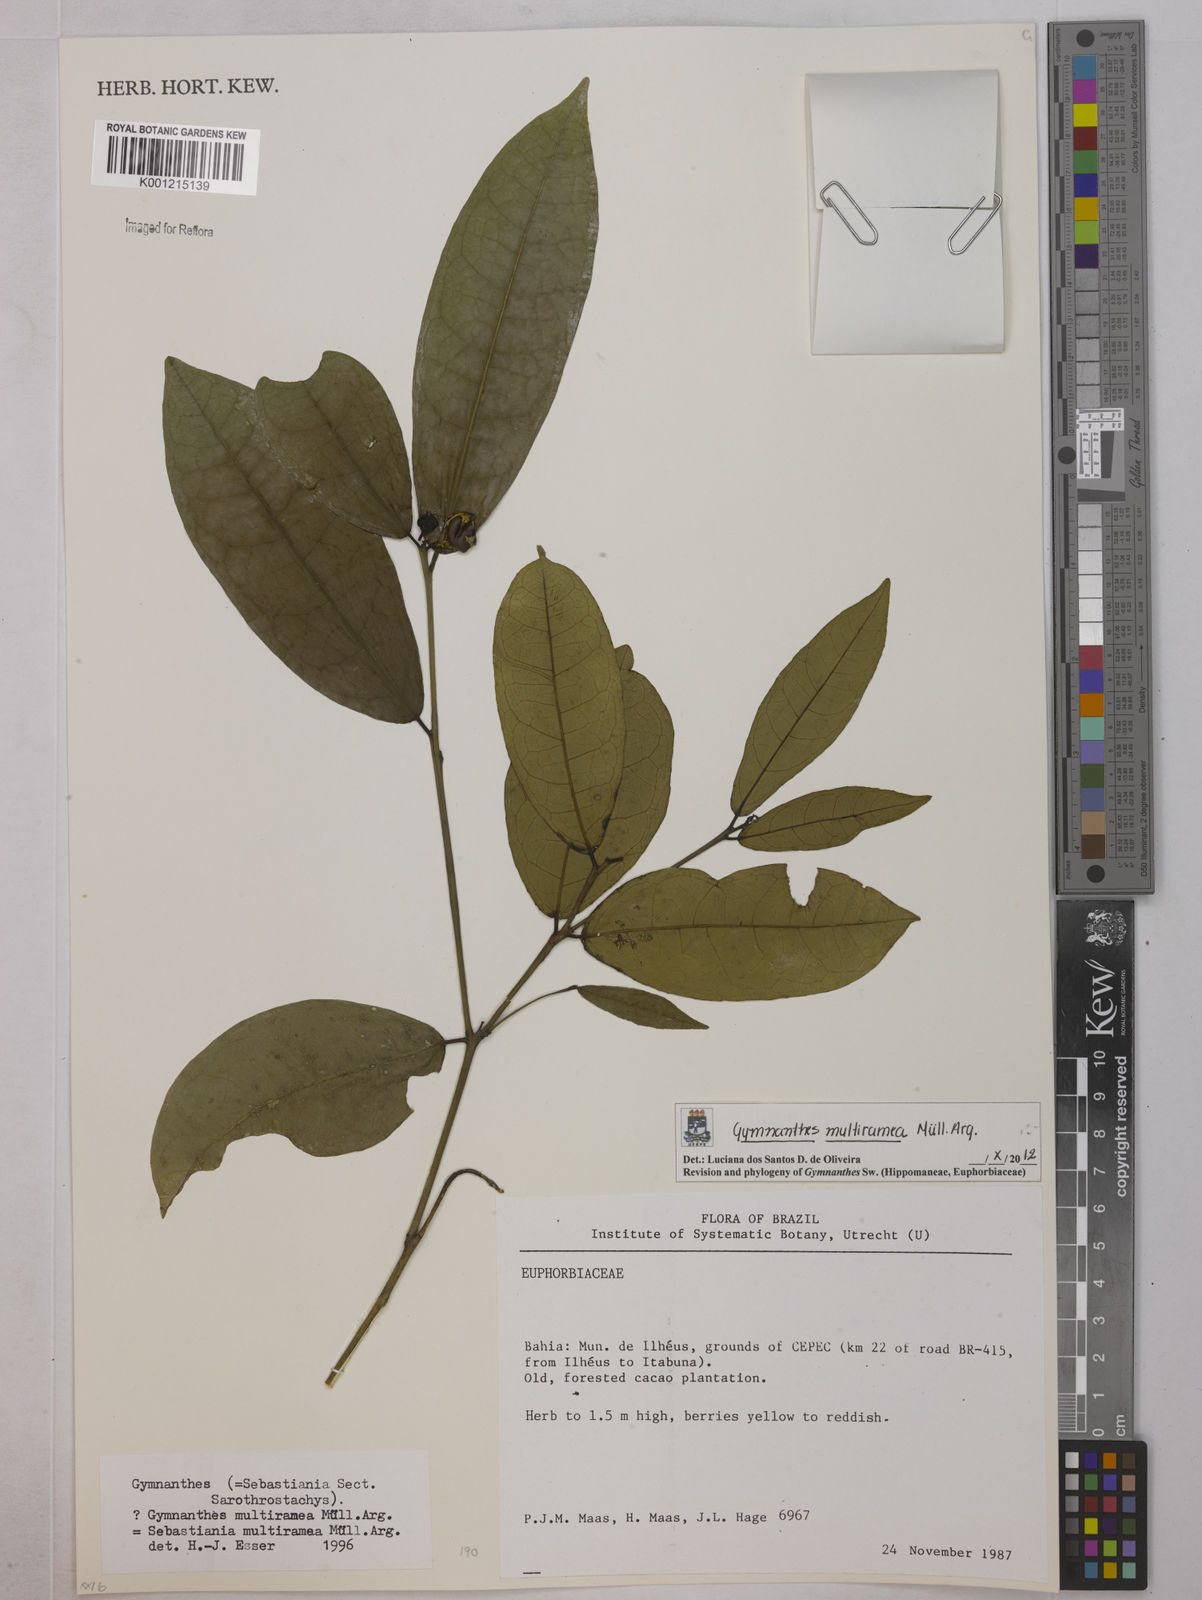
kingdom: Plantae
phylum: Tracheophyta
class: Magnoliopsida
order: Malpighiales
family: Euphorbiaceae
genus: Gymnanthes
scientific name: Gymnanthes
